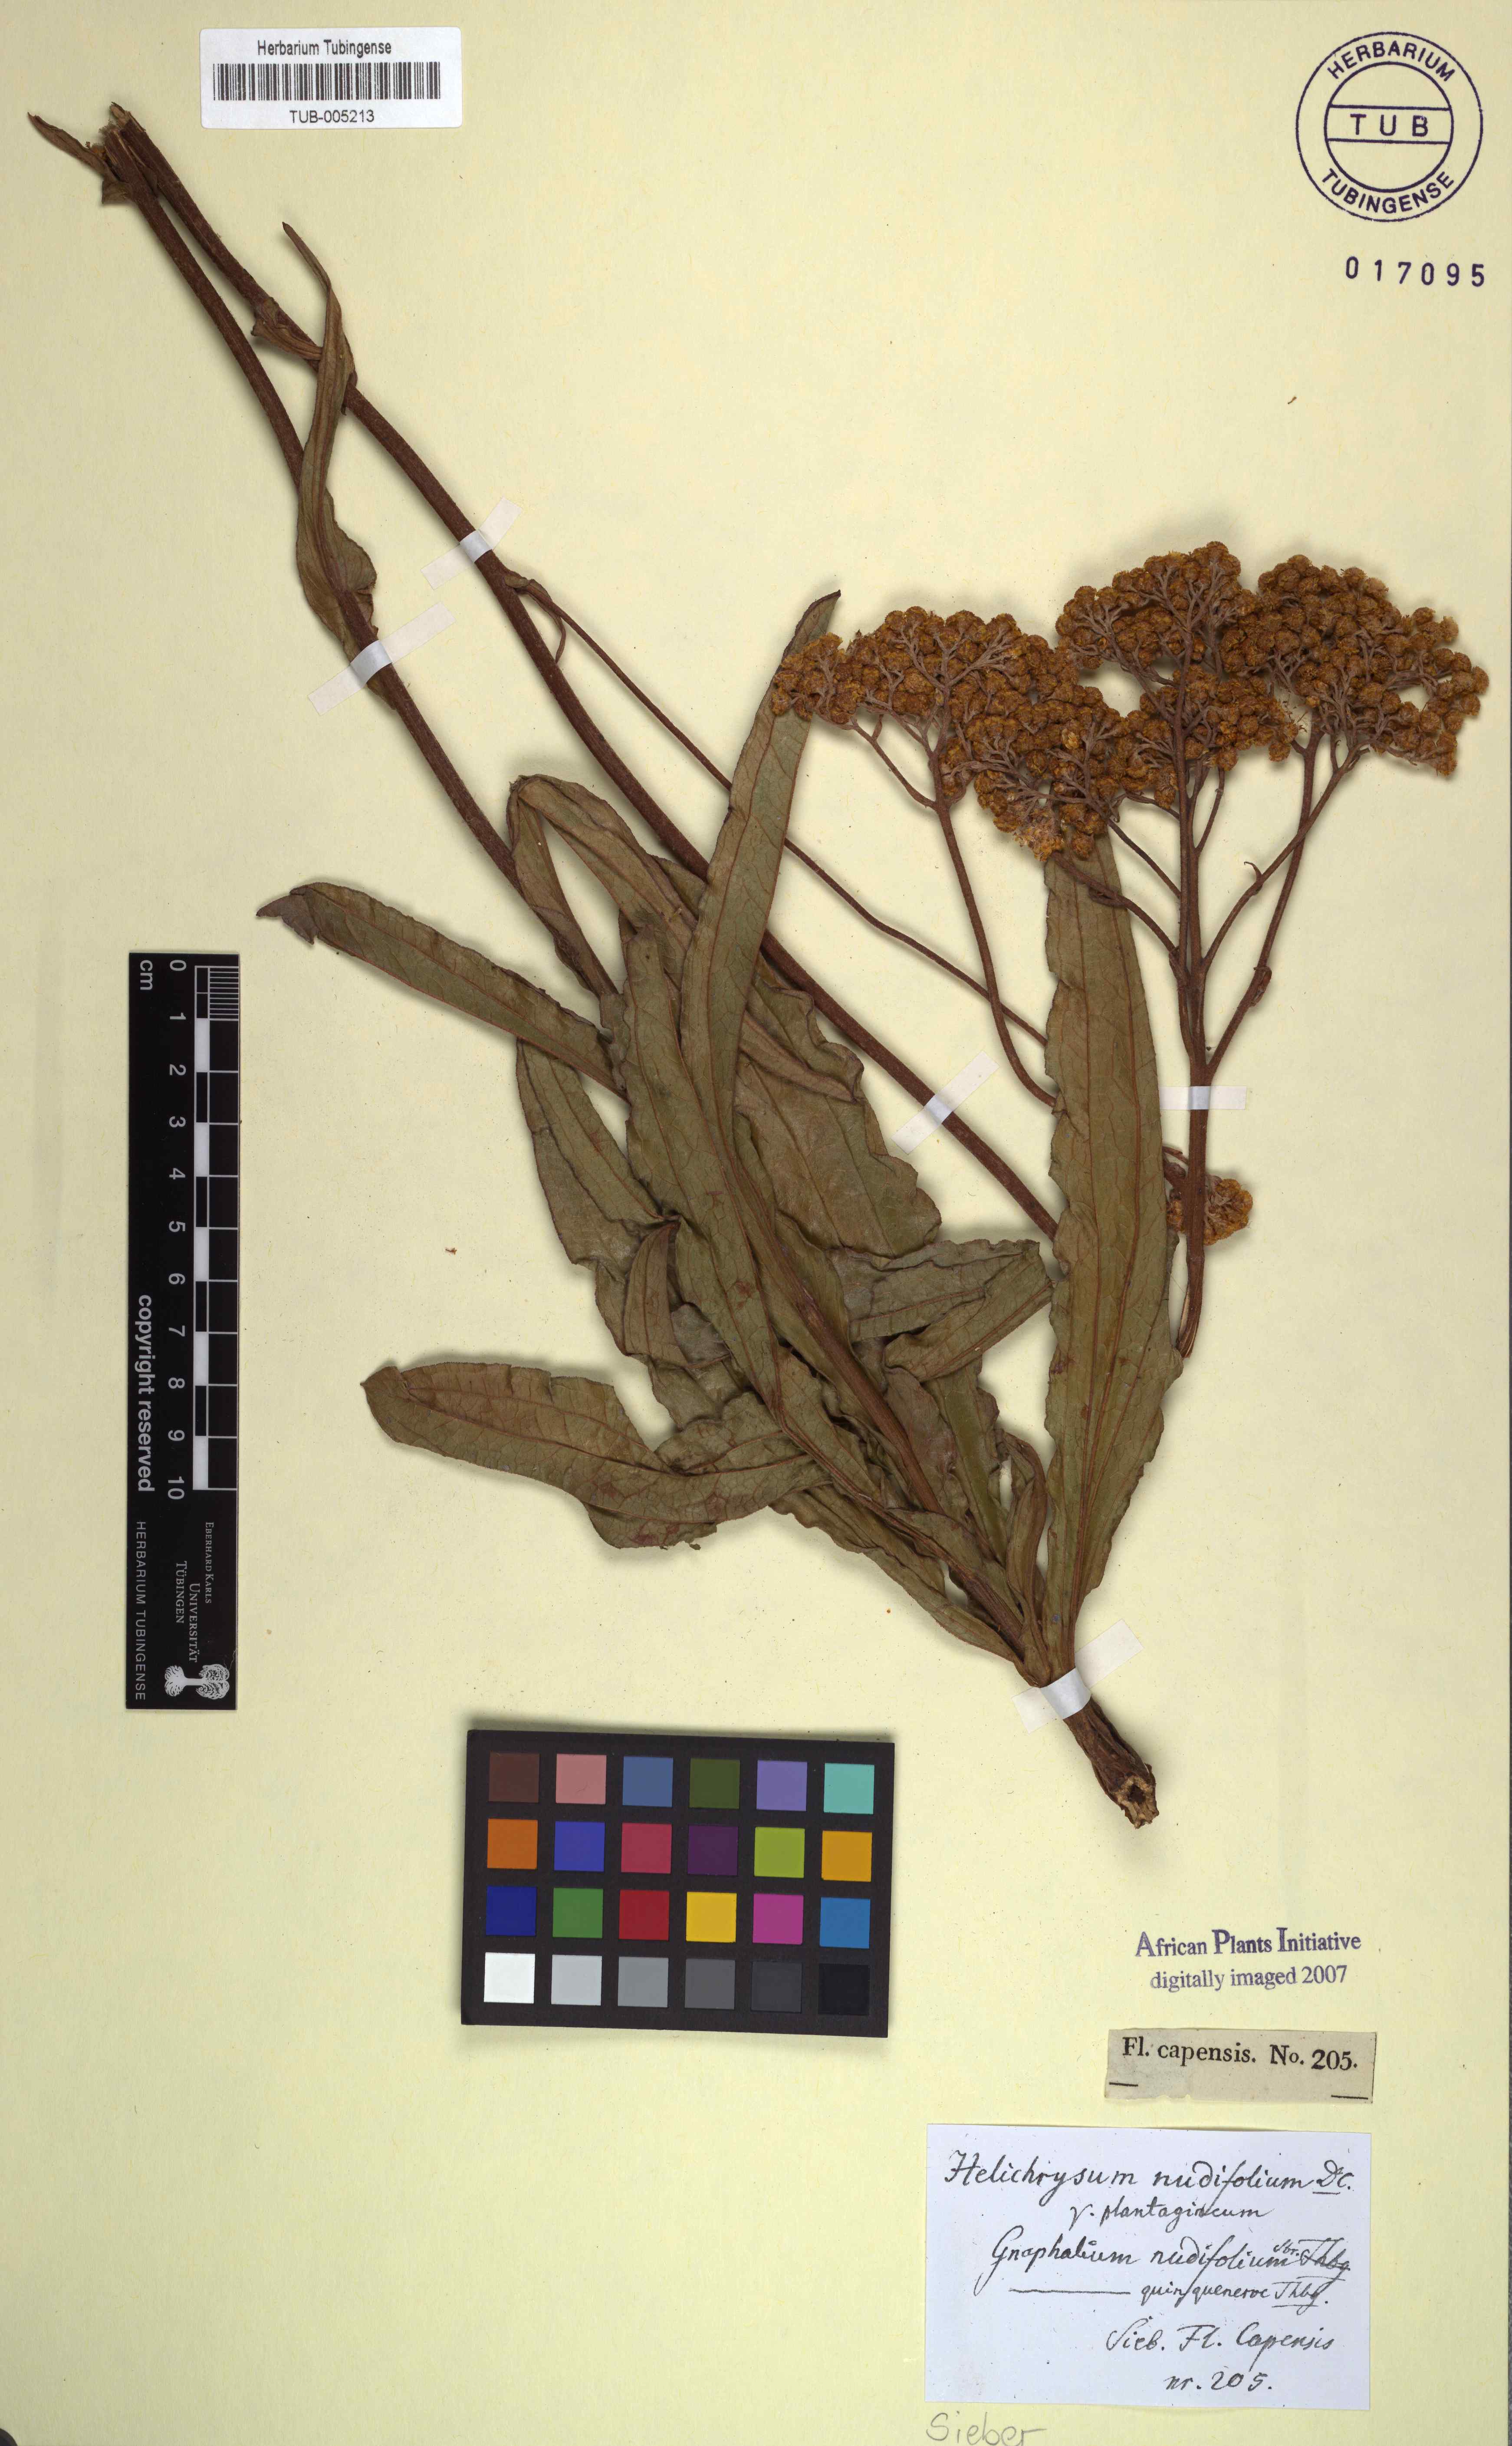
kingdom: Plantae
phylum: Tracheophyta
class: Magnoliopsida
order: Asterales
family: Asteraceae
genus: Helichrysum
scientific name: Helichrysum nudifolium
